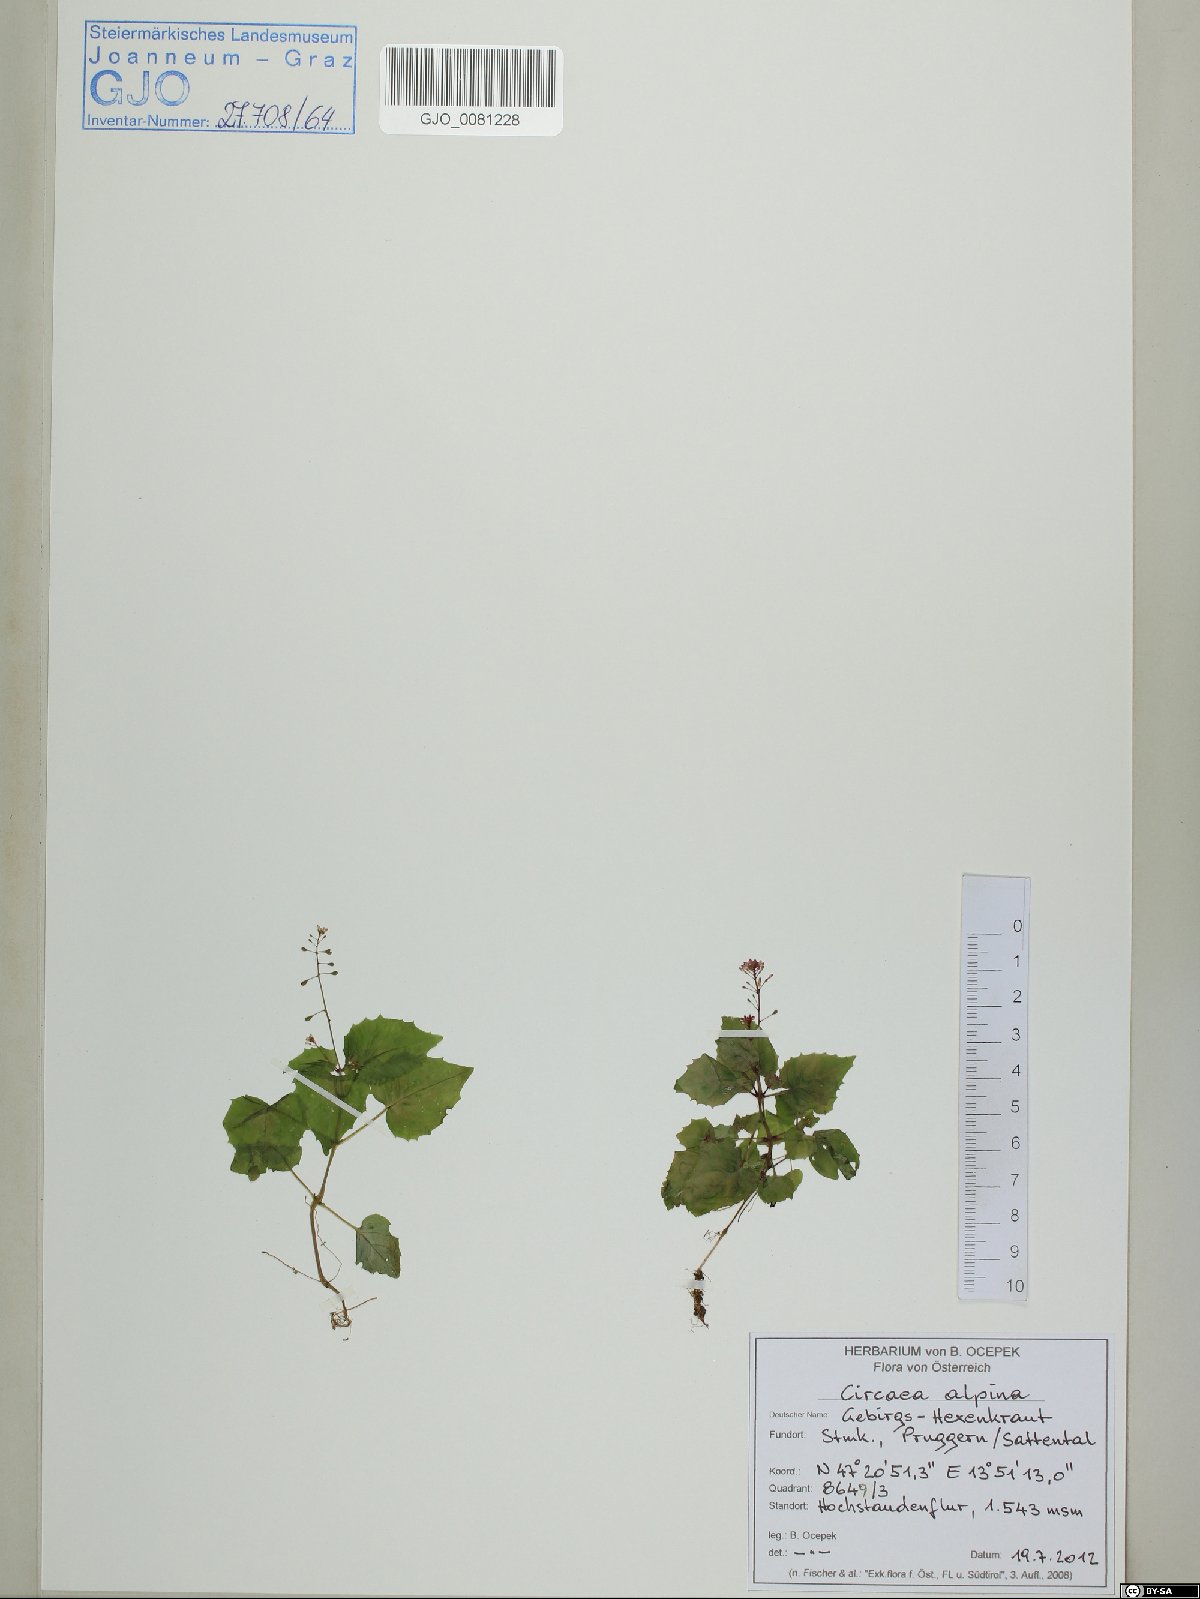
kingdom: Plantae
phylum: Tracheophyta
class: Magnoliopsida
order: Myrtales
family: Onagraceae
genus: Circaea
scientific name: Circaea alpina
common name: Alpine enchanter's-nightshade
